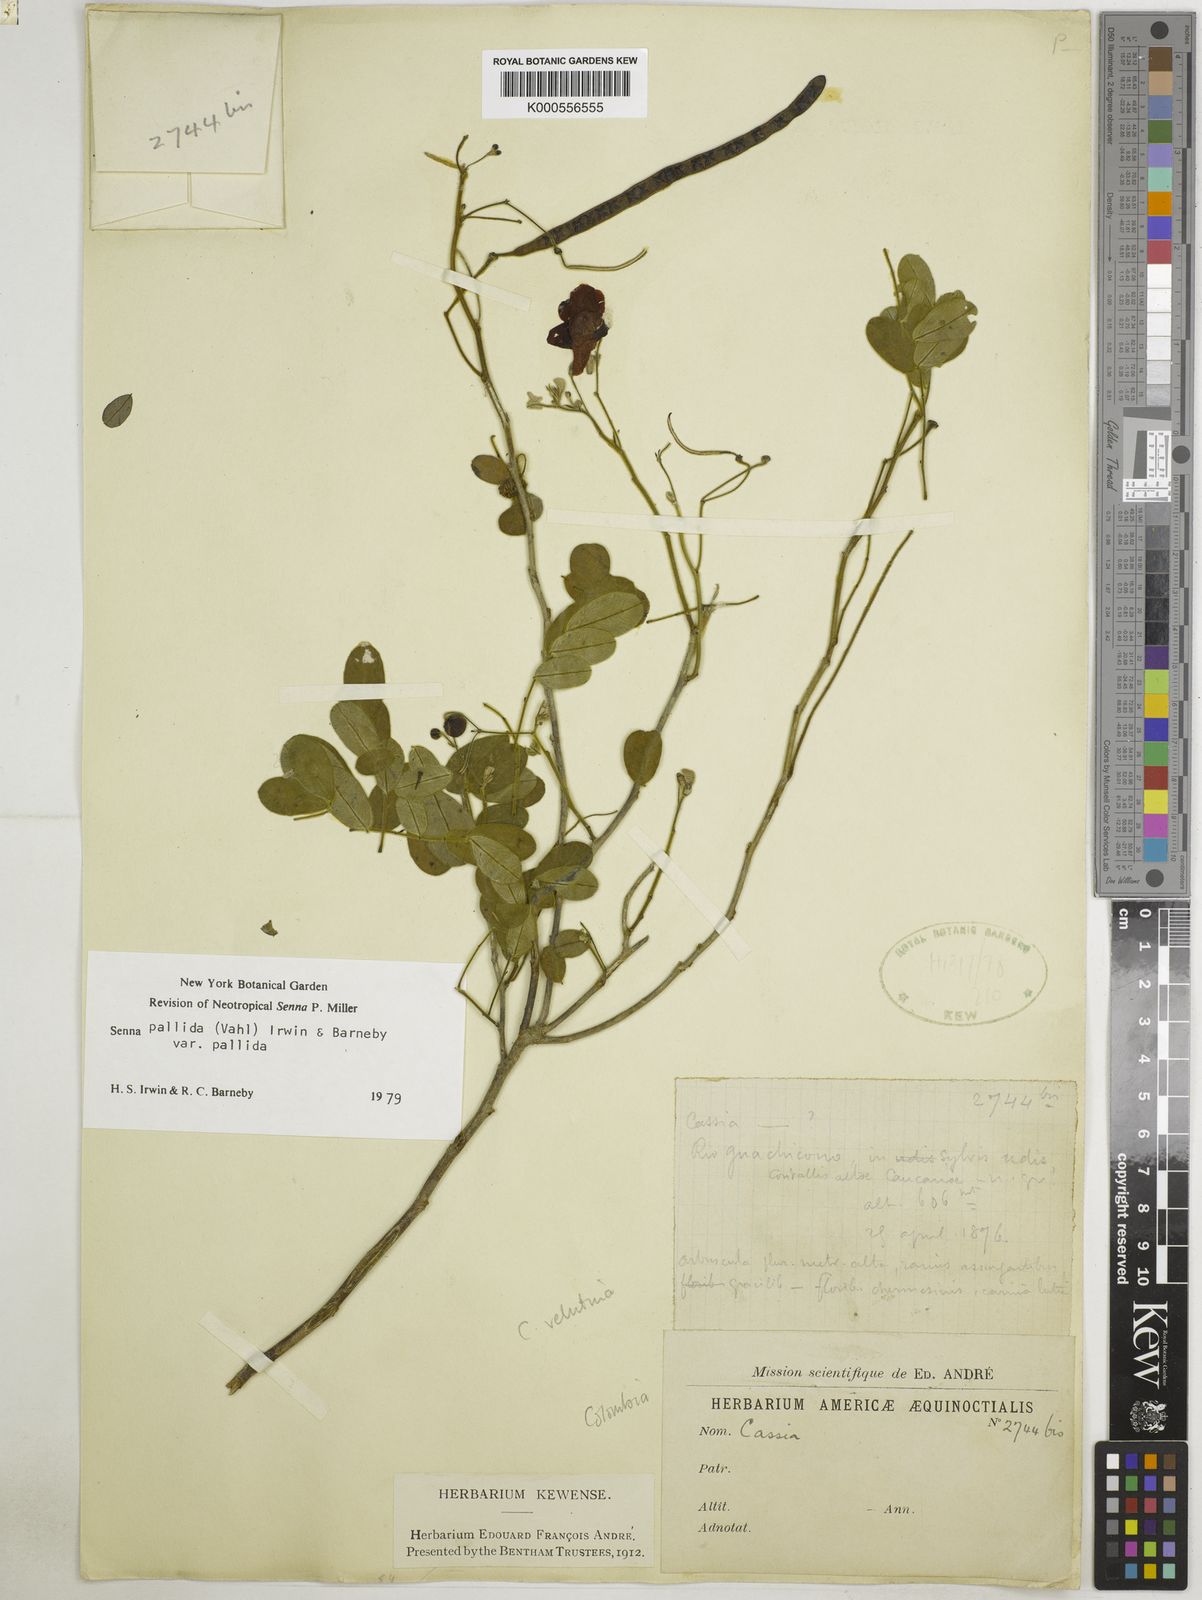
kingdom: Plantae
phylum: Tracheophyta
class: Magnoliopsida
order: Fabales
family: Fabaceae
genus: Senna
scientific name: Senna pallida
